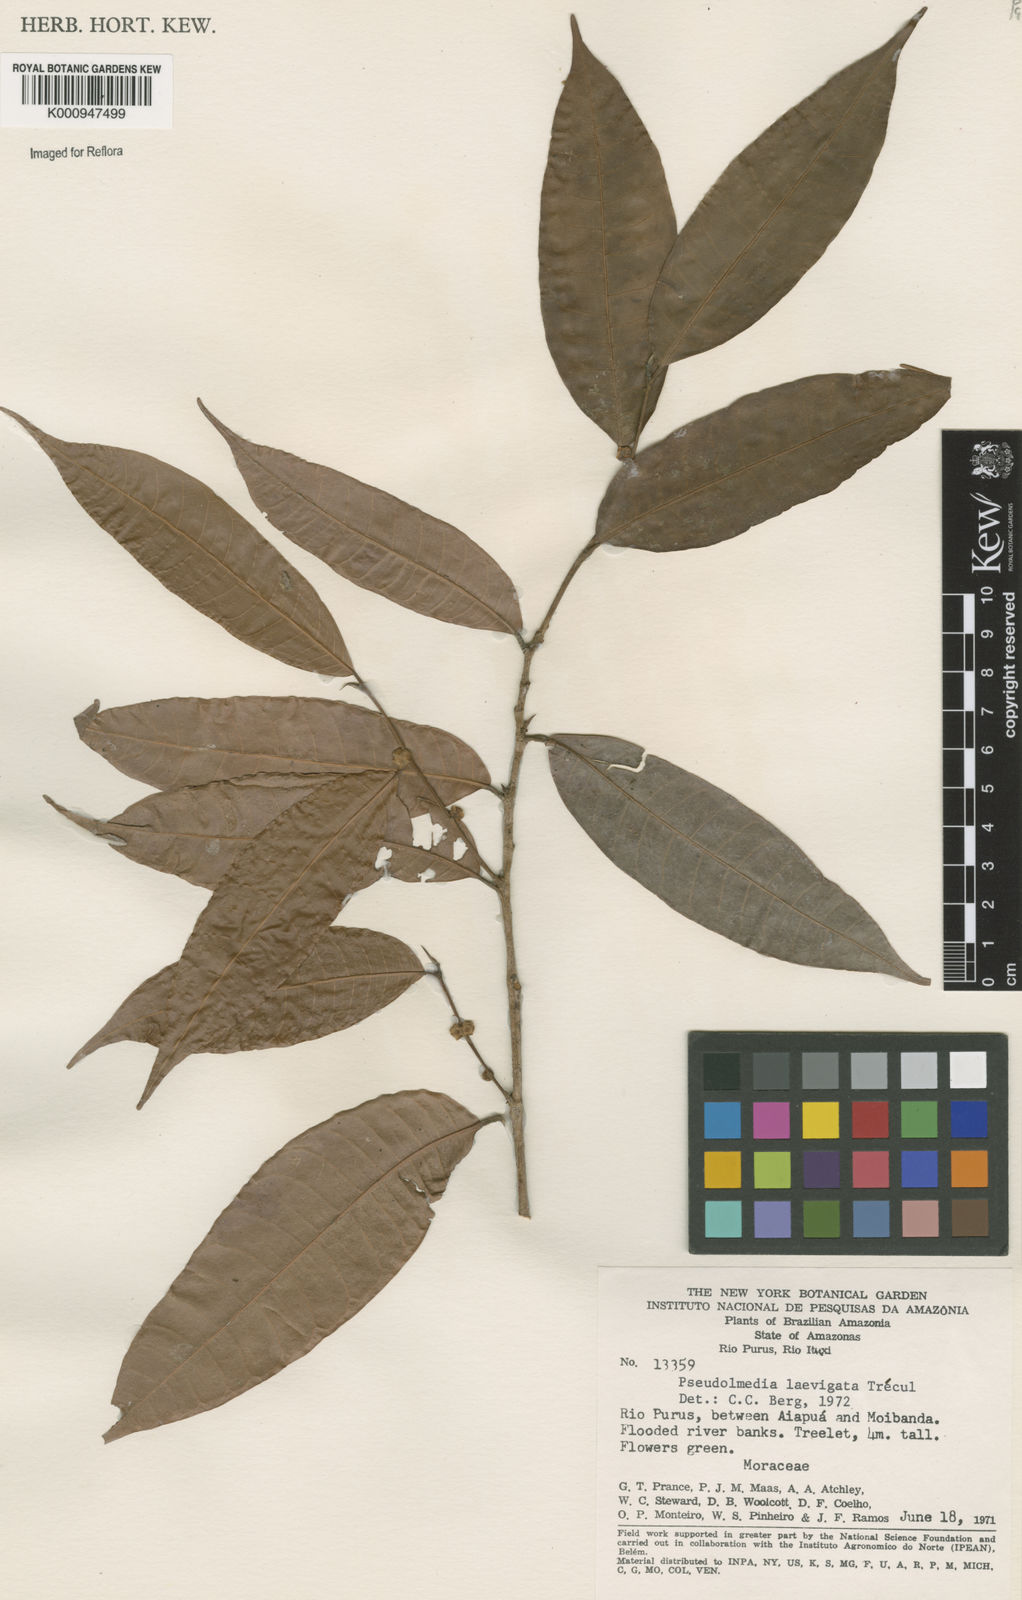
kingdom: Plantae
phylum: Tracheophyta
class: Magnoliopsida
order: Rosales
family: Moraceae
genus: Pseudolmedia
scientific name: Pseudolmedia
